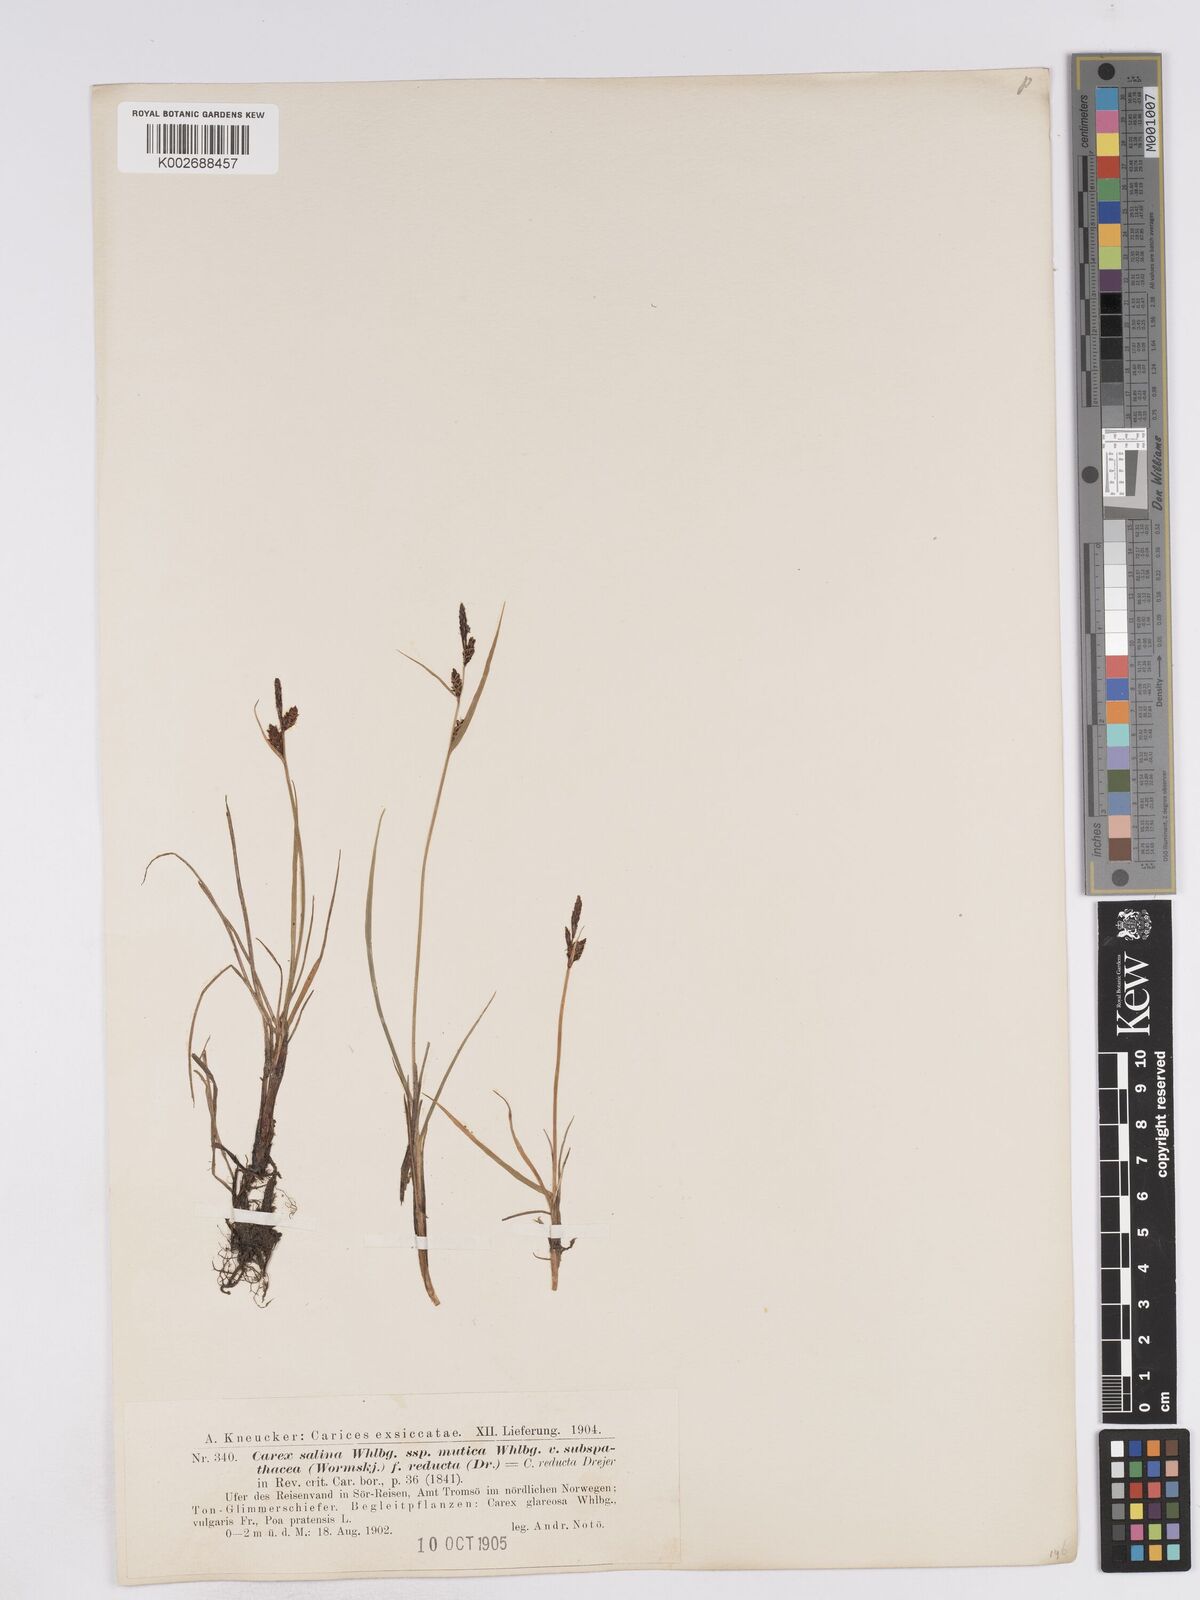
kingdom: Plantae
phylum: Tracheophyta
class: Liliopsida
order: Poales
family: Cyperaceae
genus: Carex
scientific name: Carex subspathacea
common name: Hoppner's sedge
